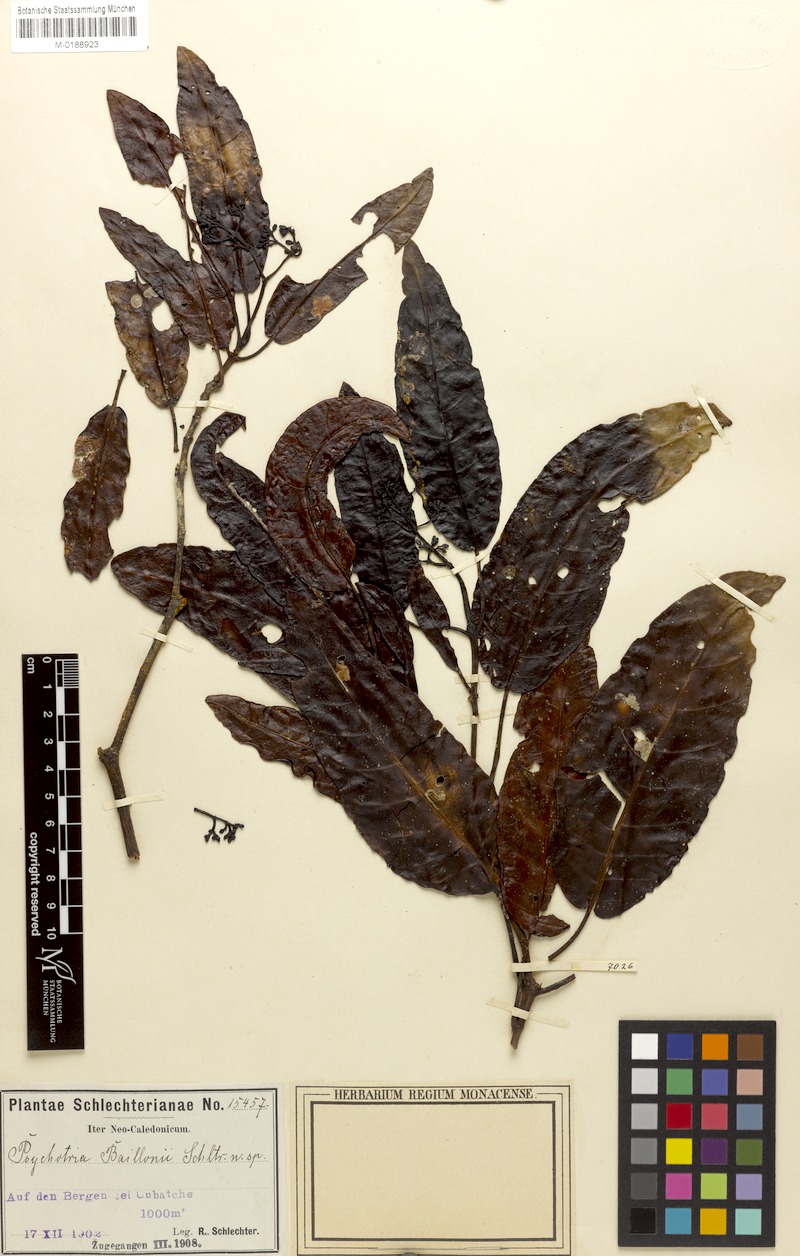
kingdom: Plantae
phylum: Tracheophyta
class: Magnoliopsida
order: Gentianales
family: Rubiaceae
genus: Psychotria
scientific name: Psychotria baillonii
